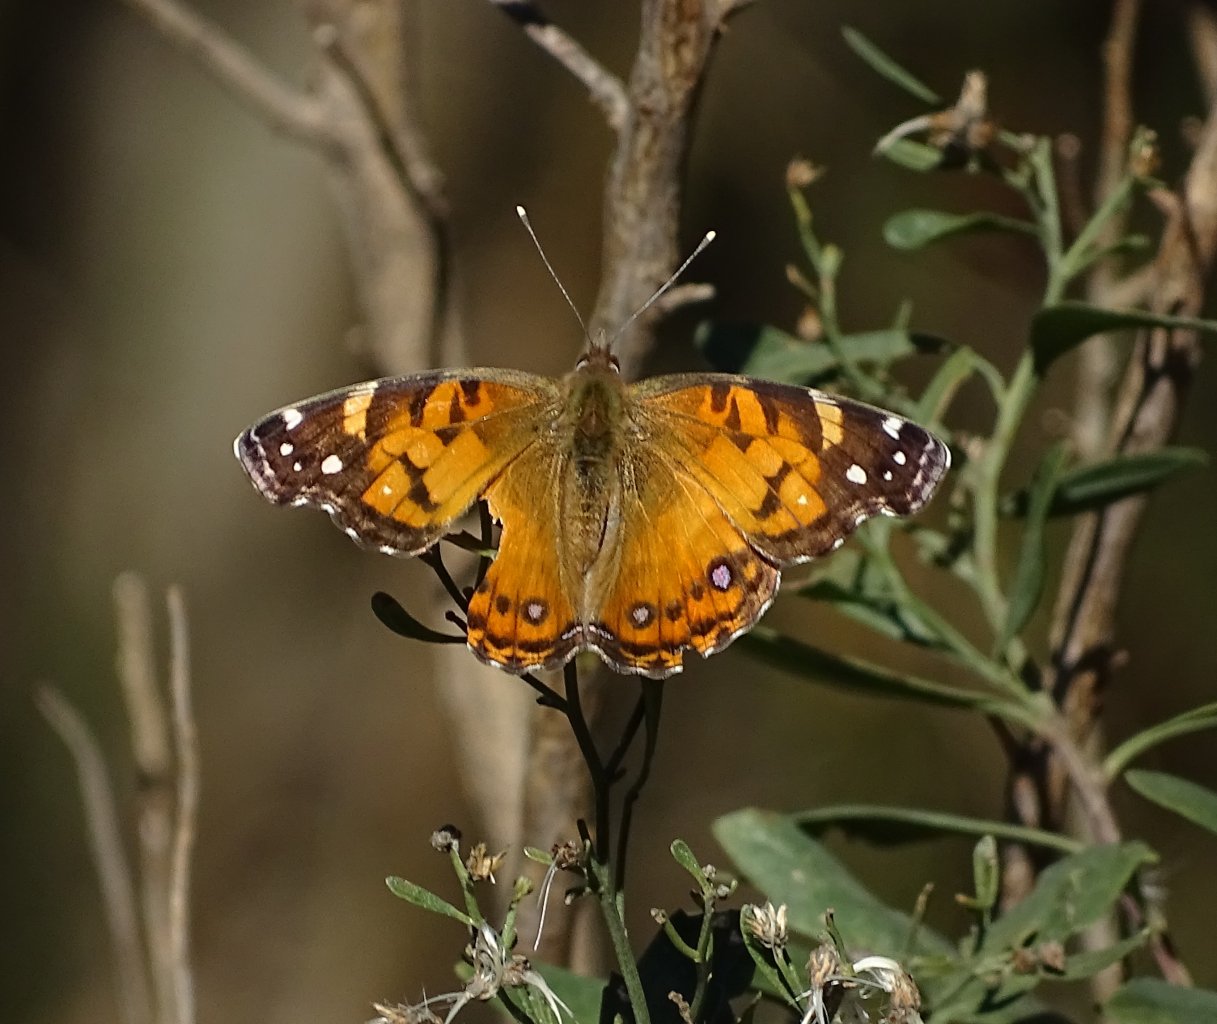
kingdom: Animalia
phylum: Arthropoda
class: Insecta
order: Lepidoptera
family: Nymphalidae
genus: Vanessa
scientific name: Vanessa virginiensis
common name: American Lady
